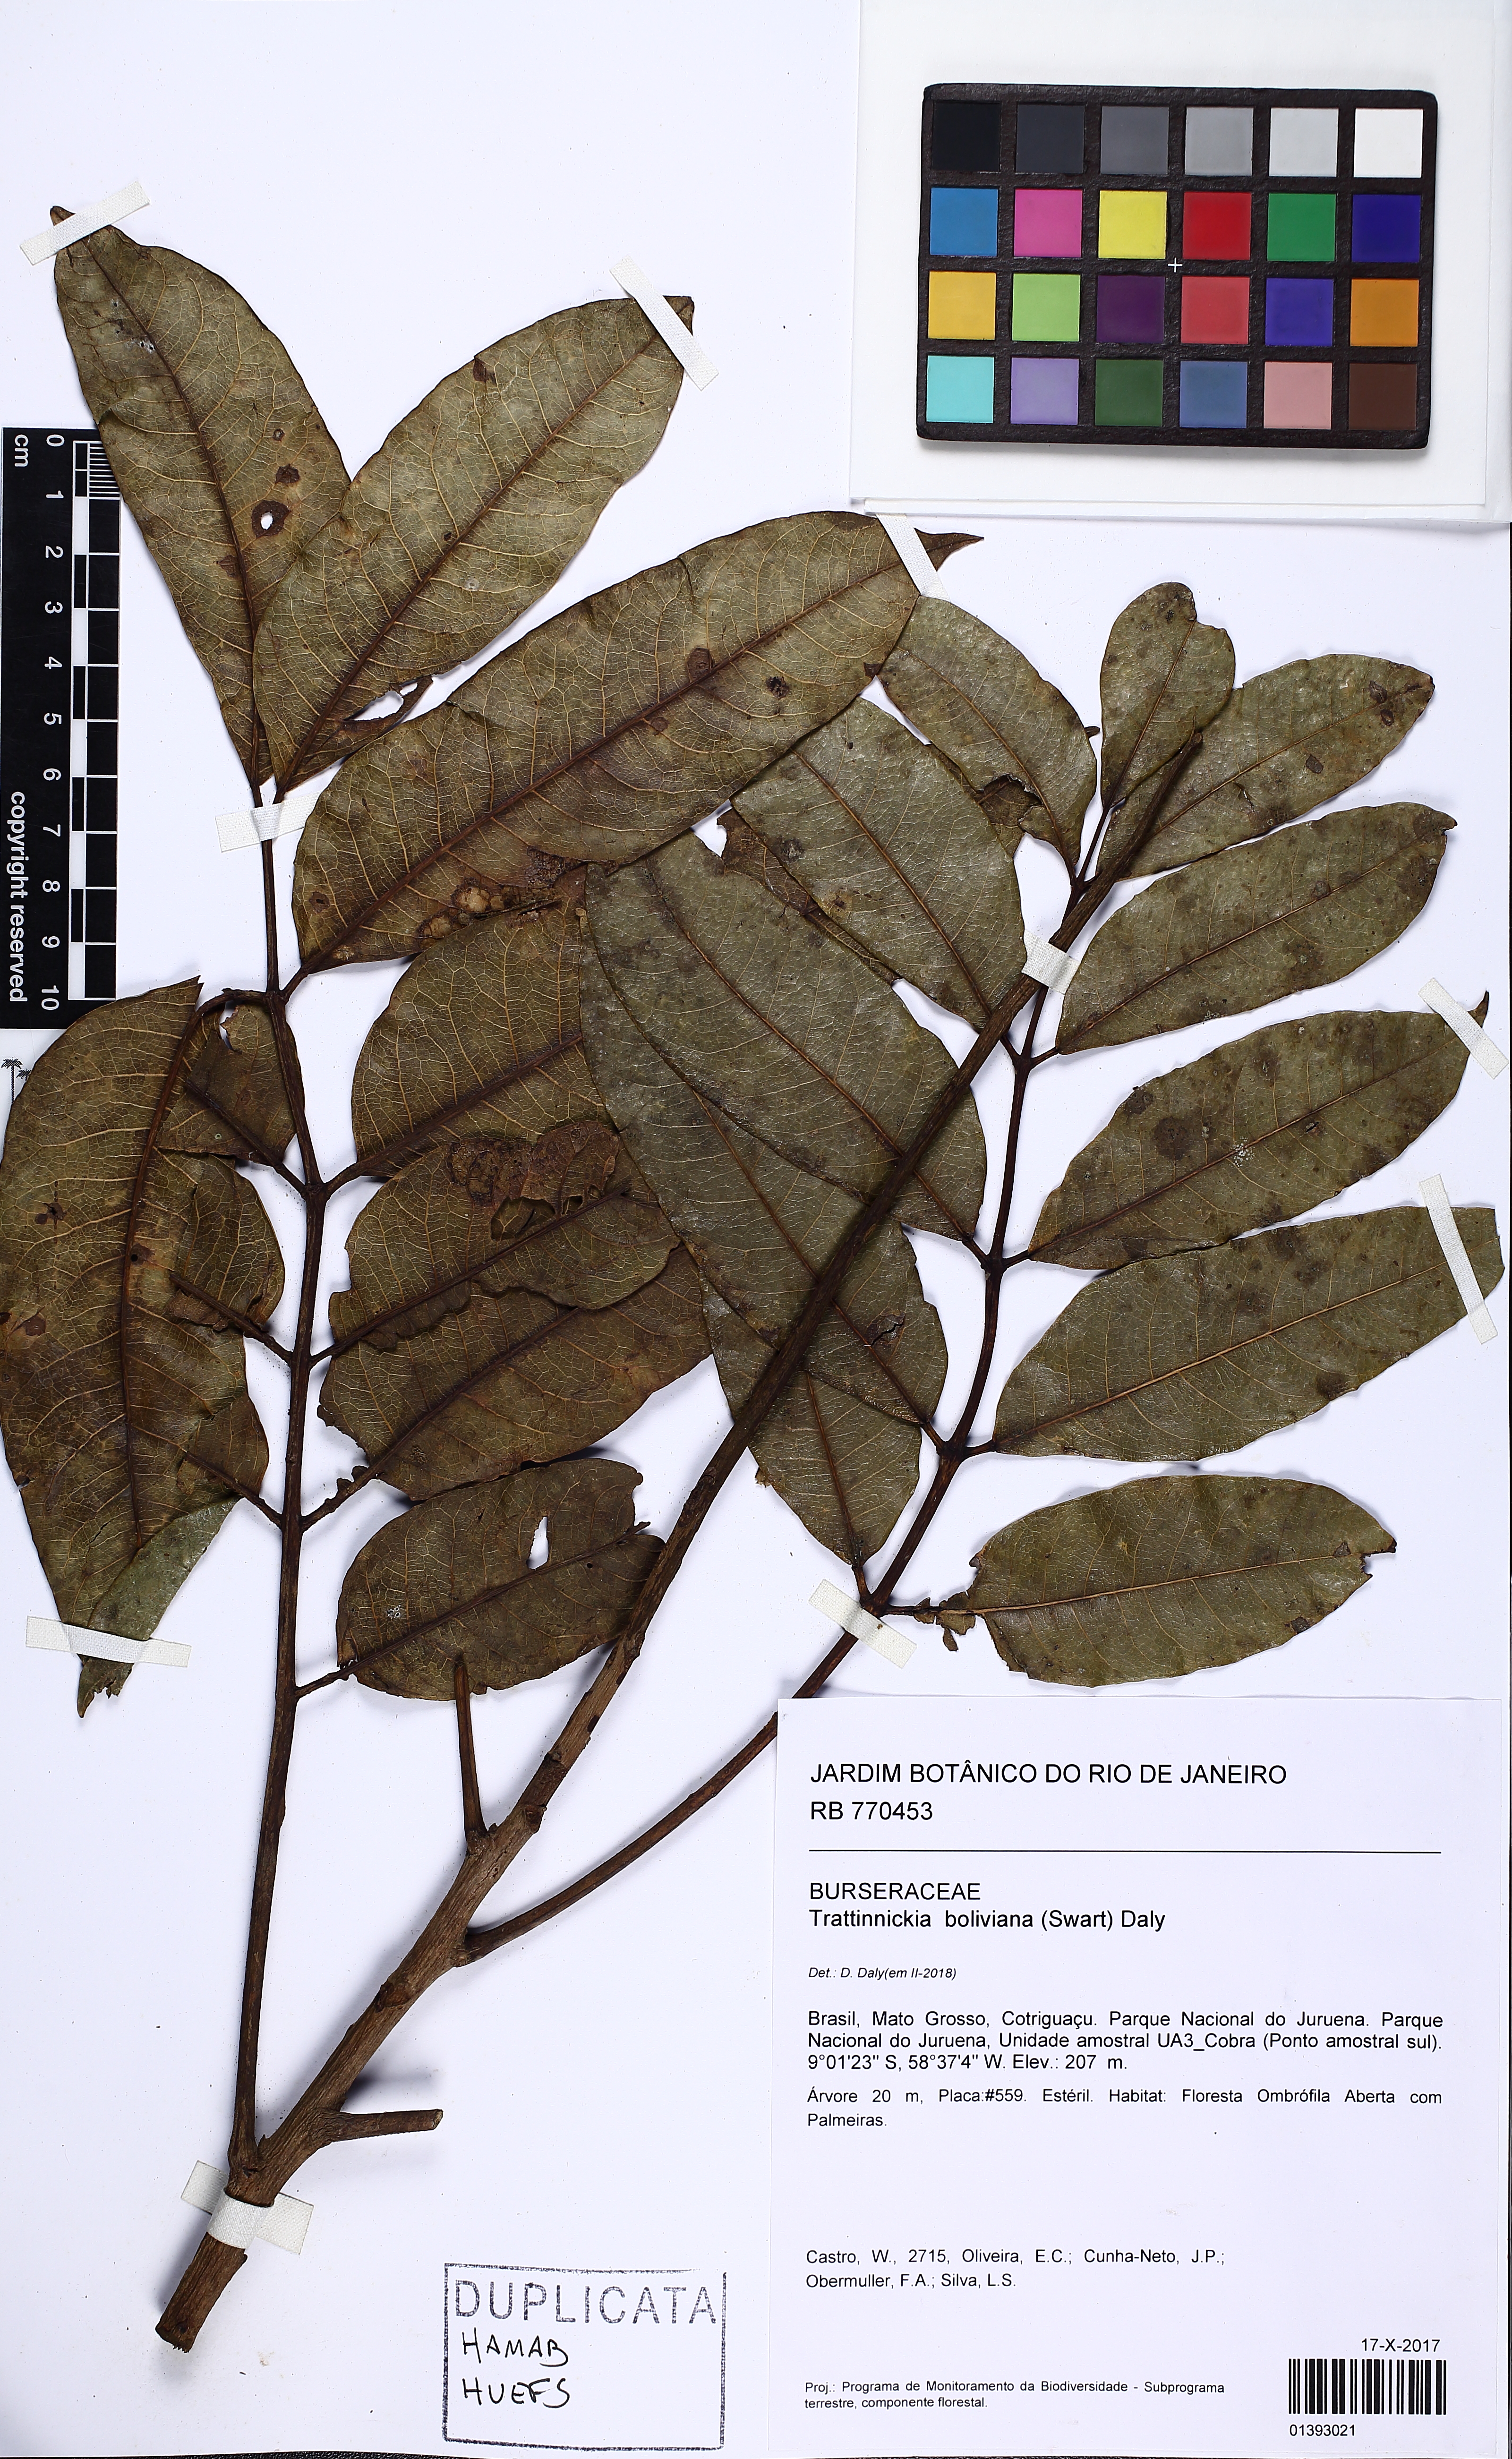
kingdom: Plantae
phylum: Tracheophyta
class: Magnoliopsida
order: Sapindales
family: Burseraceae
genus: Trattinnickia
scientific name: Trattinnickia boliviana
